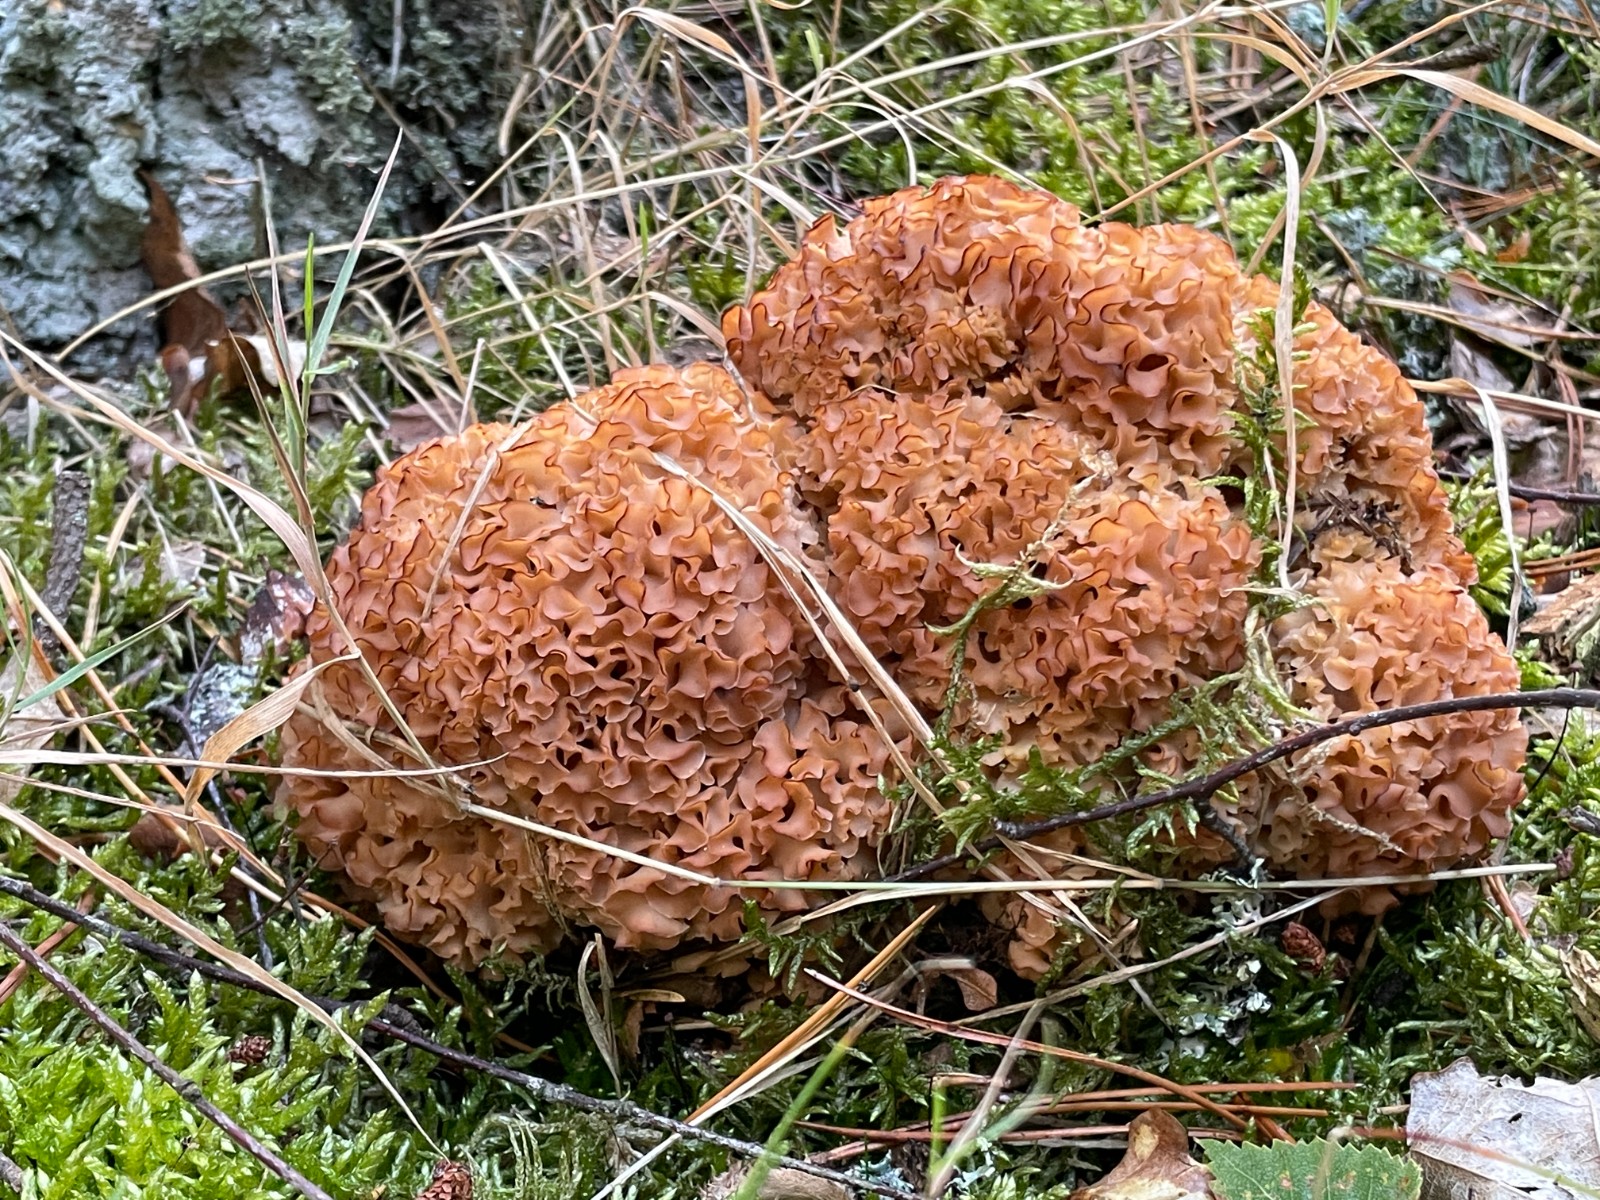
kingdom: Fungi
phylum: Basidiomycota
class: Agaricomycetes
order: Polyporales
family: Sparassidaceae
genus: Sparassis
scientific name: Sparassis crispa
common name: kruset blomkålssvamp
